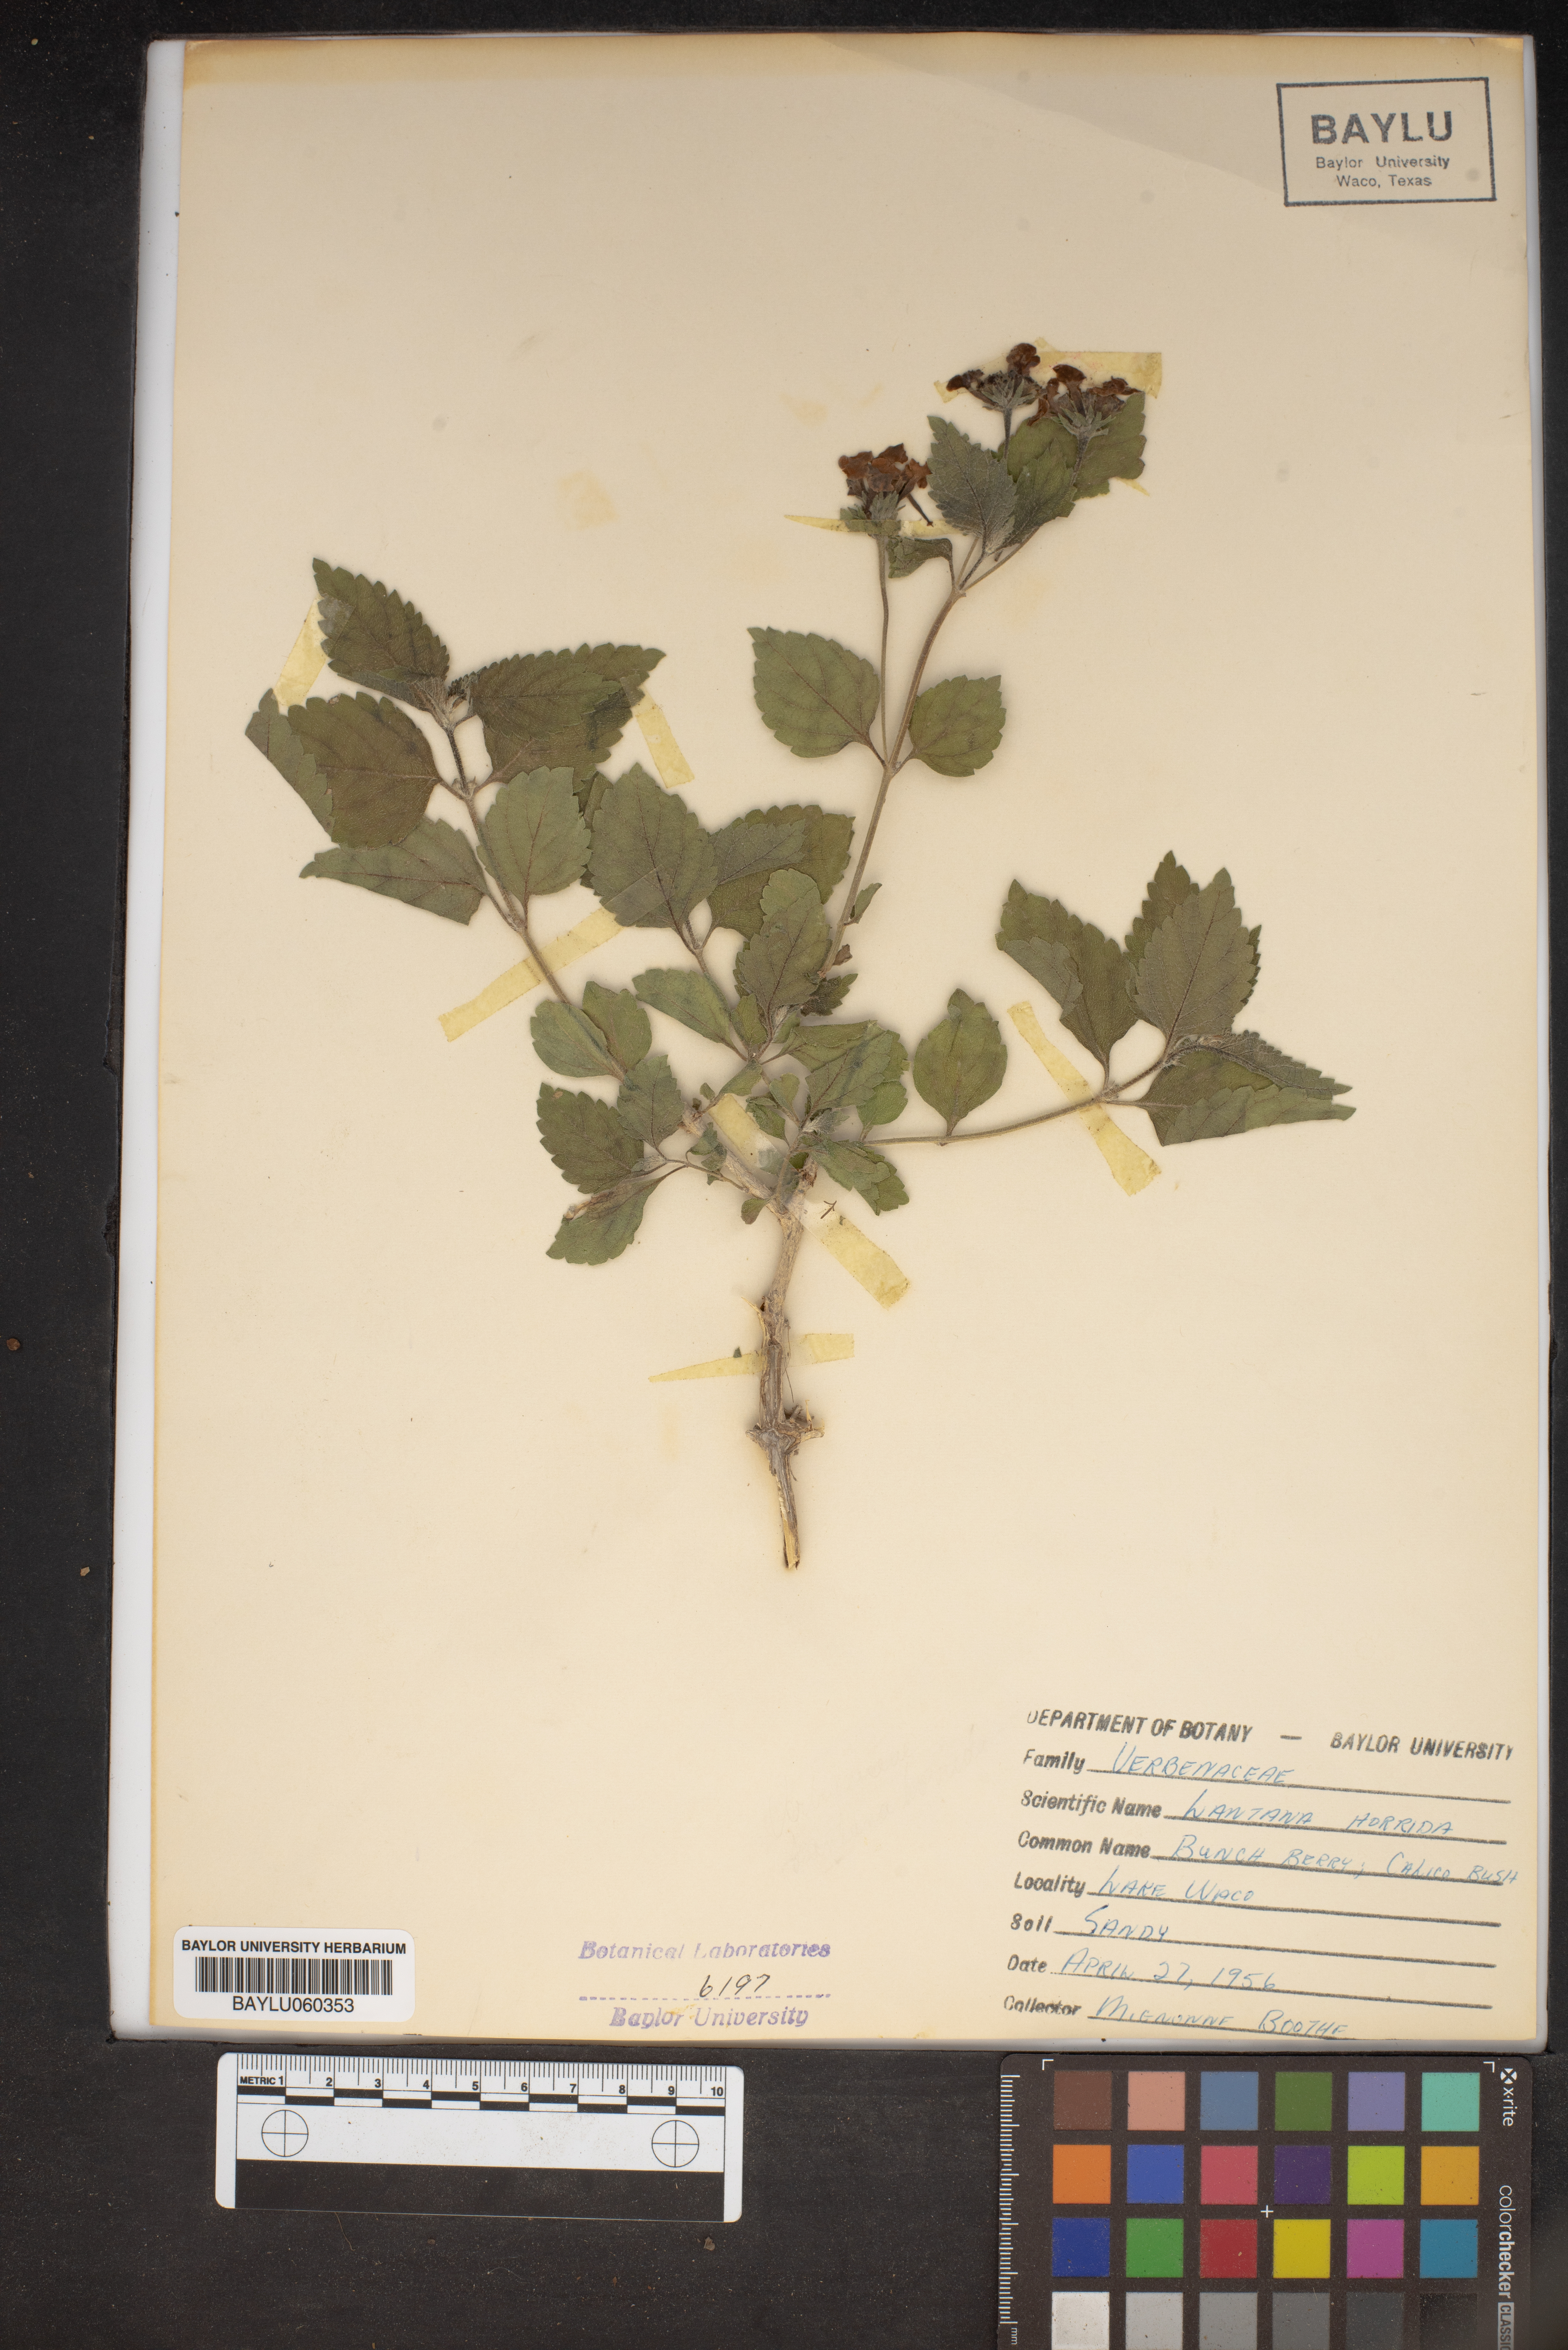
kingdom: Plantae
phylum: Tracheophyta
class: Magnoliopsida
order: Lamiales
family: Verbenaceae
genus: Lantana
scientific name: Lantana horrida
